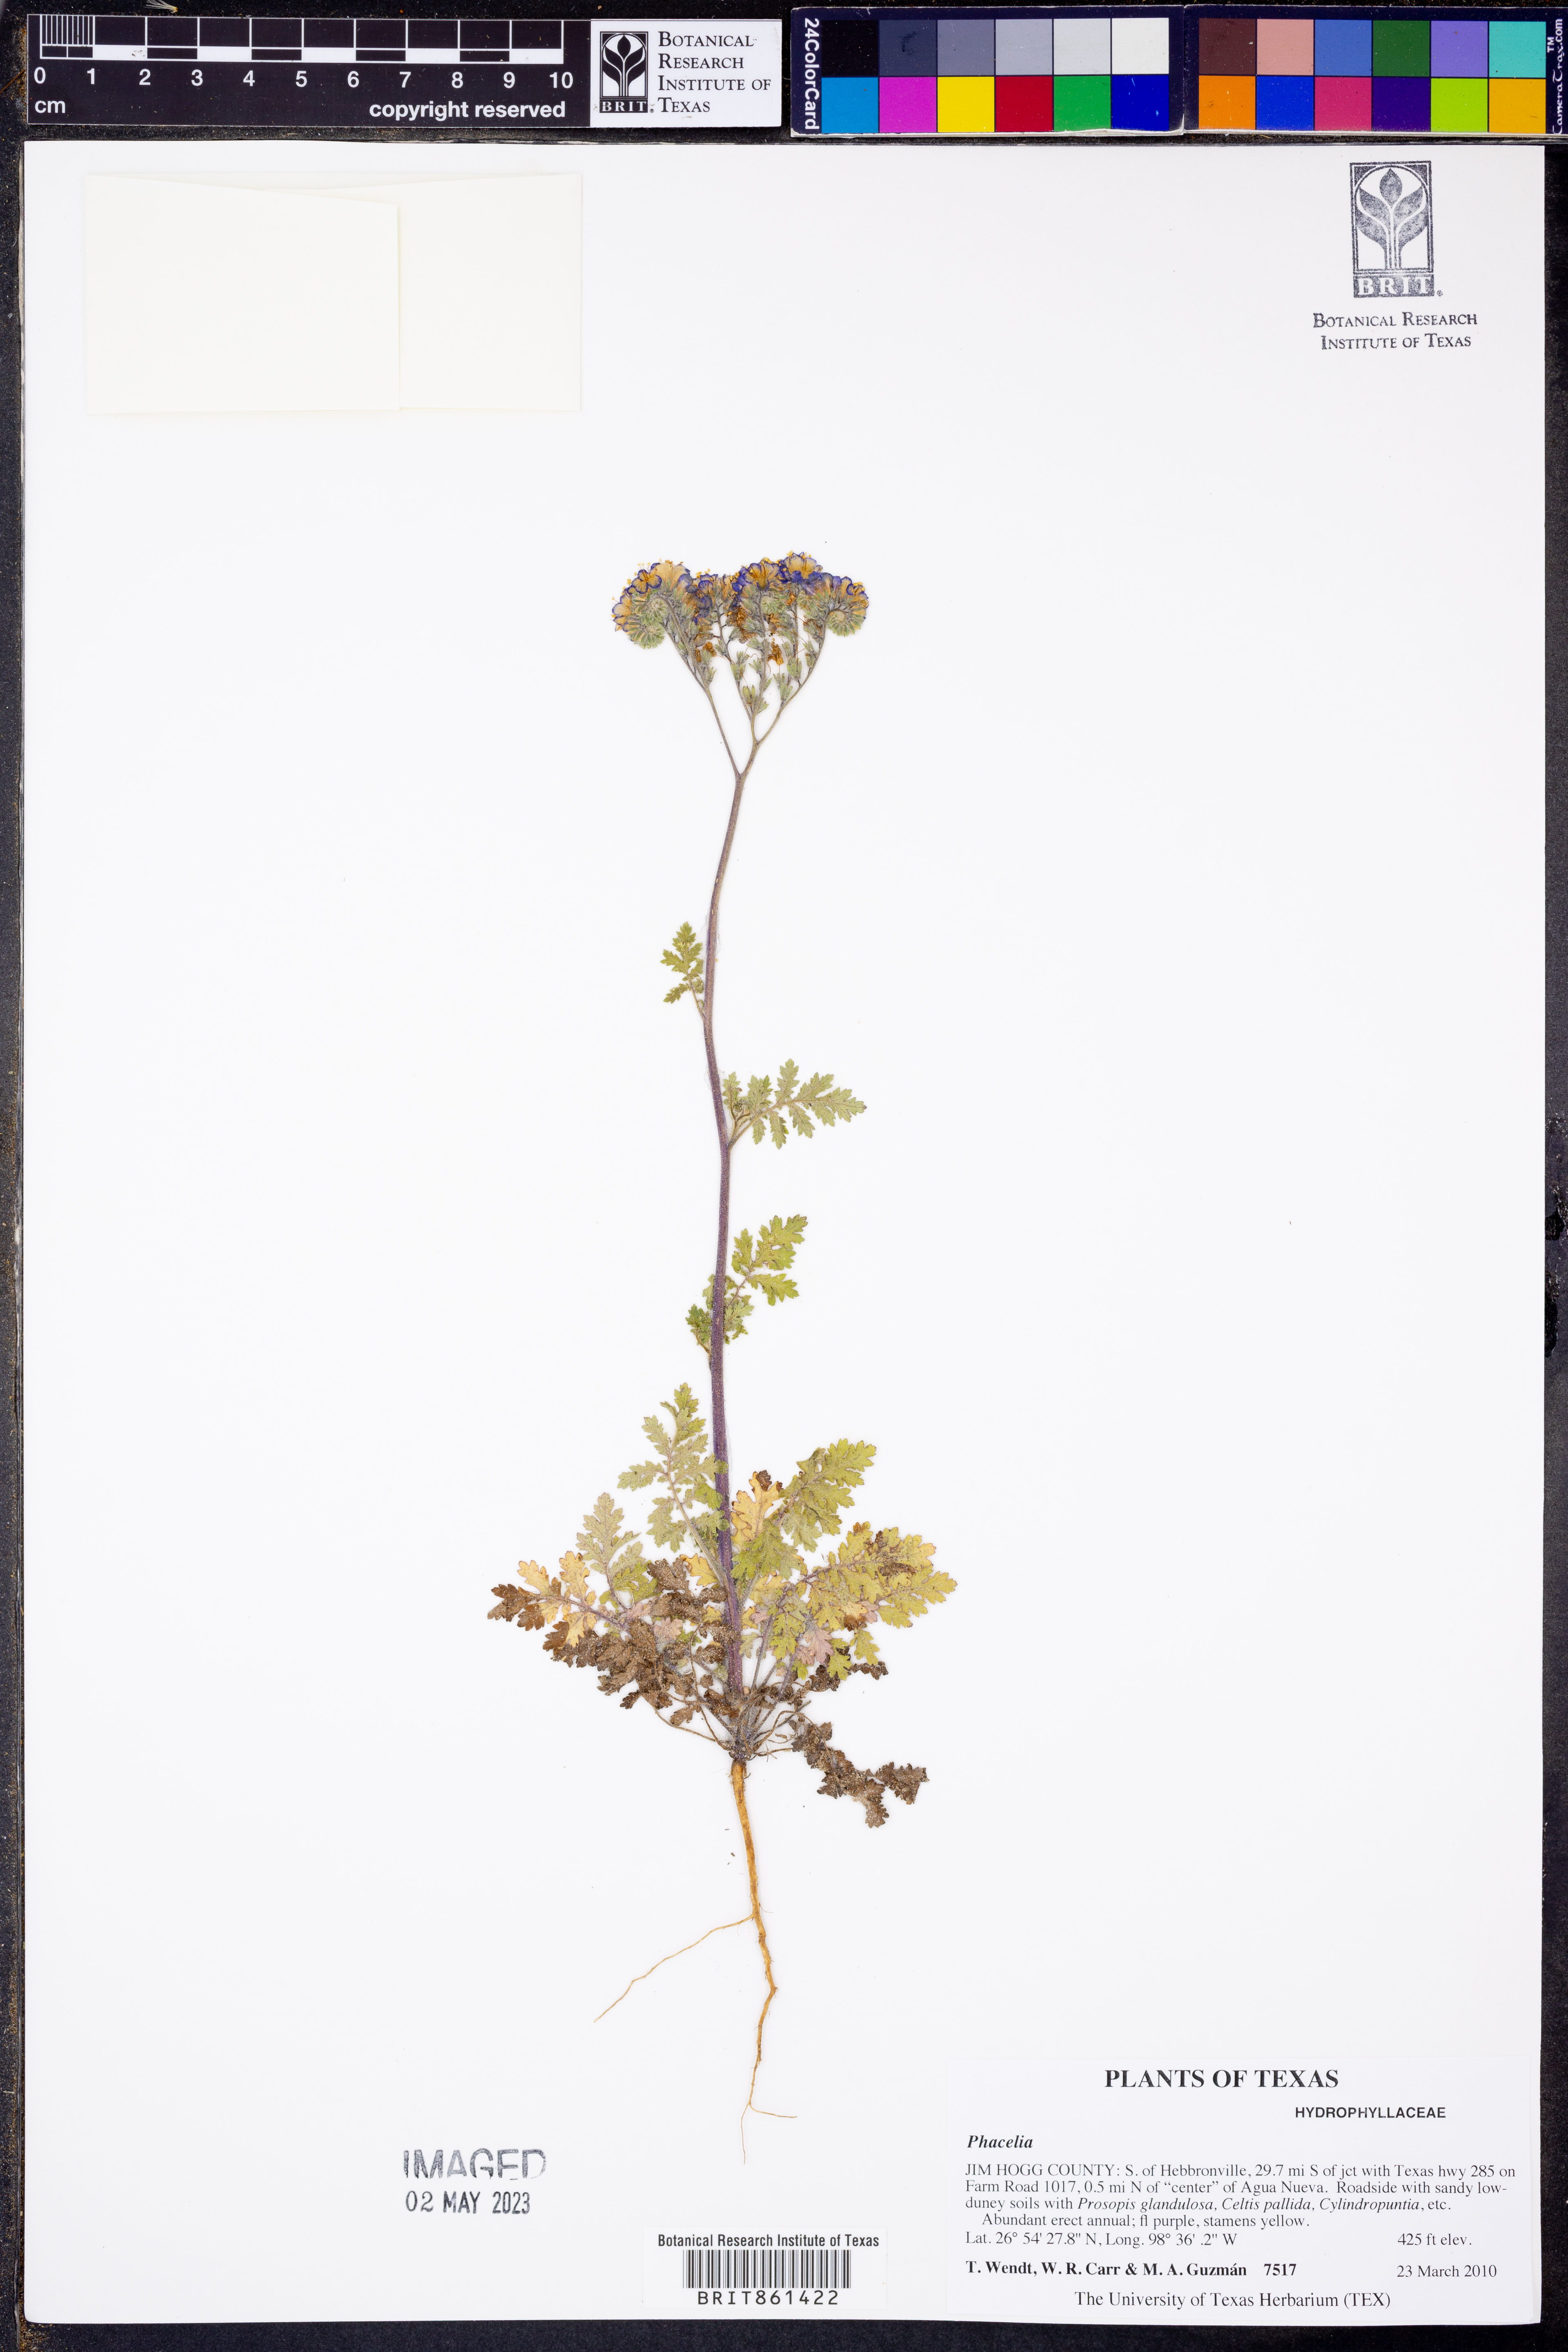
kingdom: Plantae
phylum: Tracheophyta
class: Magnoliopsida
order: Boraginales
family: Hydrophyllaceae
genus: Phacelia
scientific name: Phacelia
